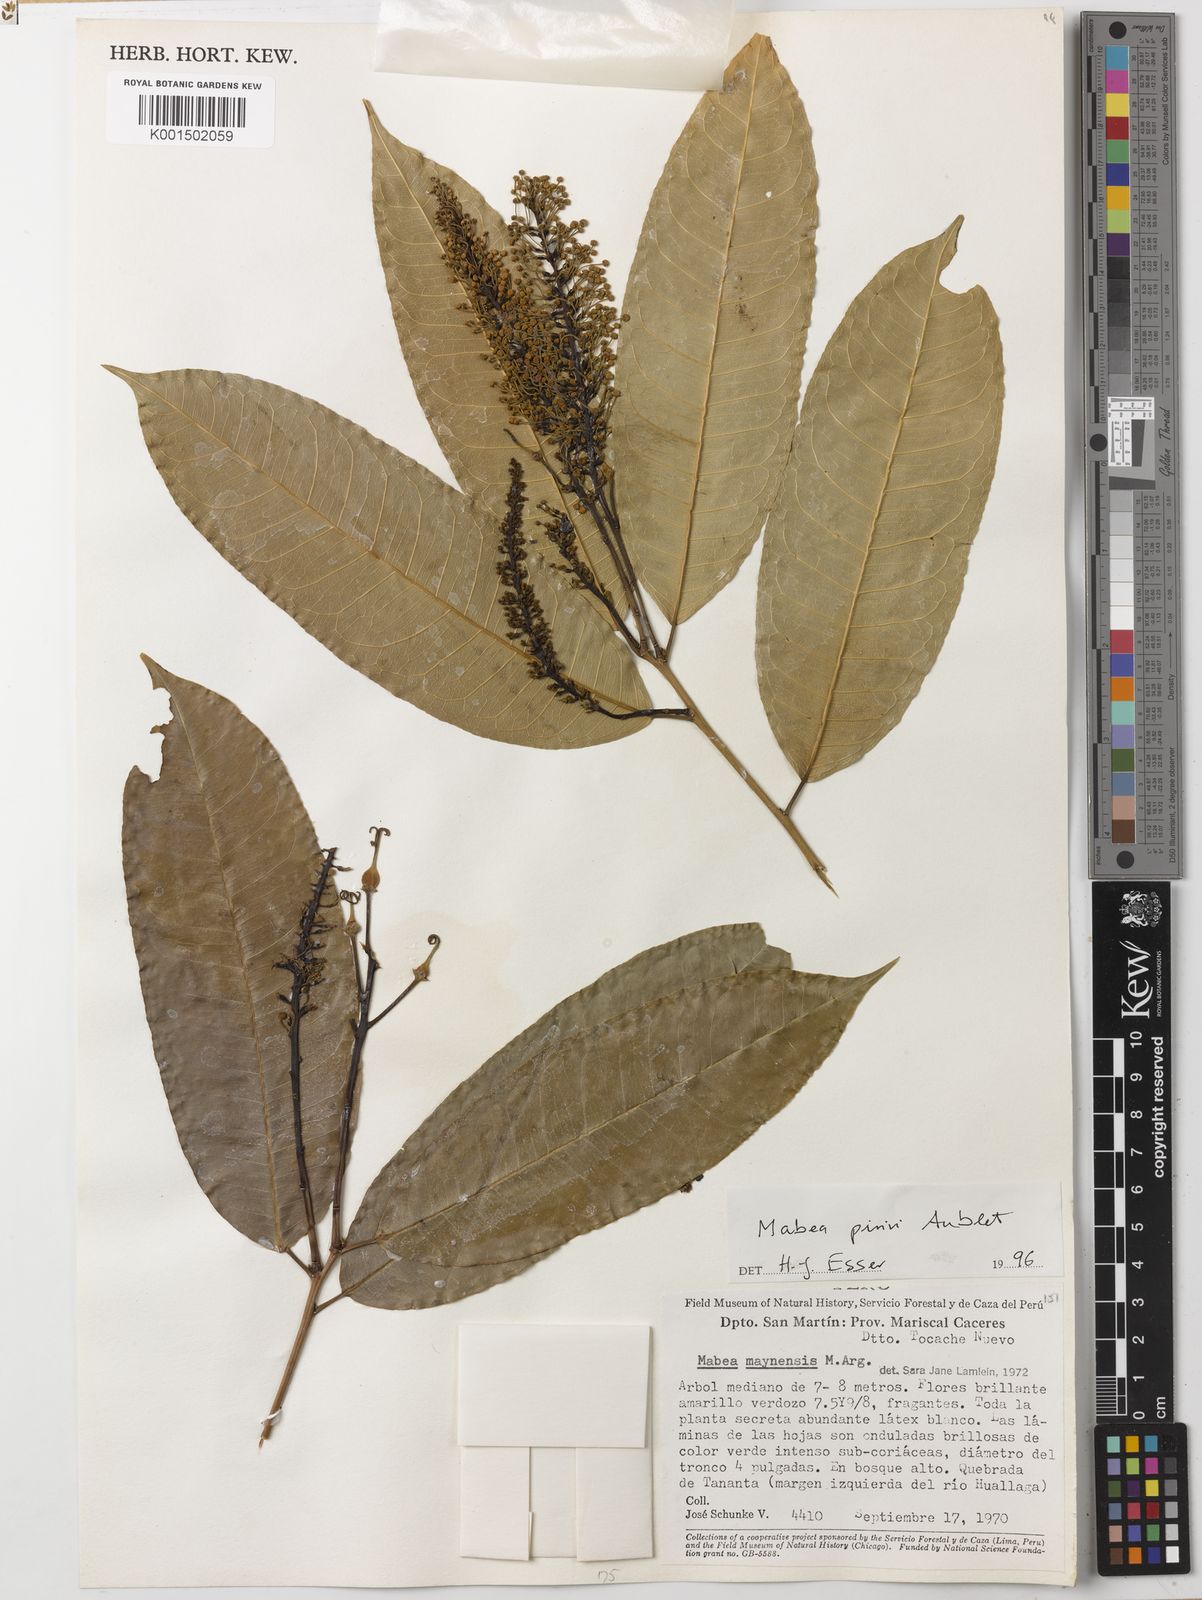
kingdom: Plantae
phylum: Tracheophyta
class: Magnoliopsida
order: Malpighiales
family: Euphorbiaceae
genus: Mabea
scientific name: Mabea piriri
